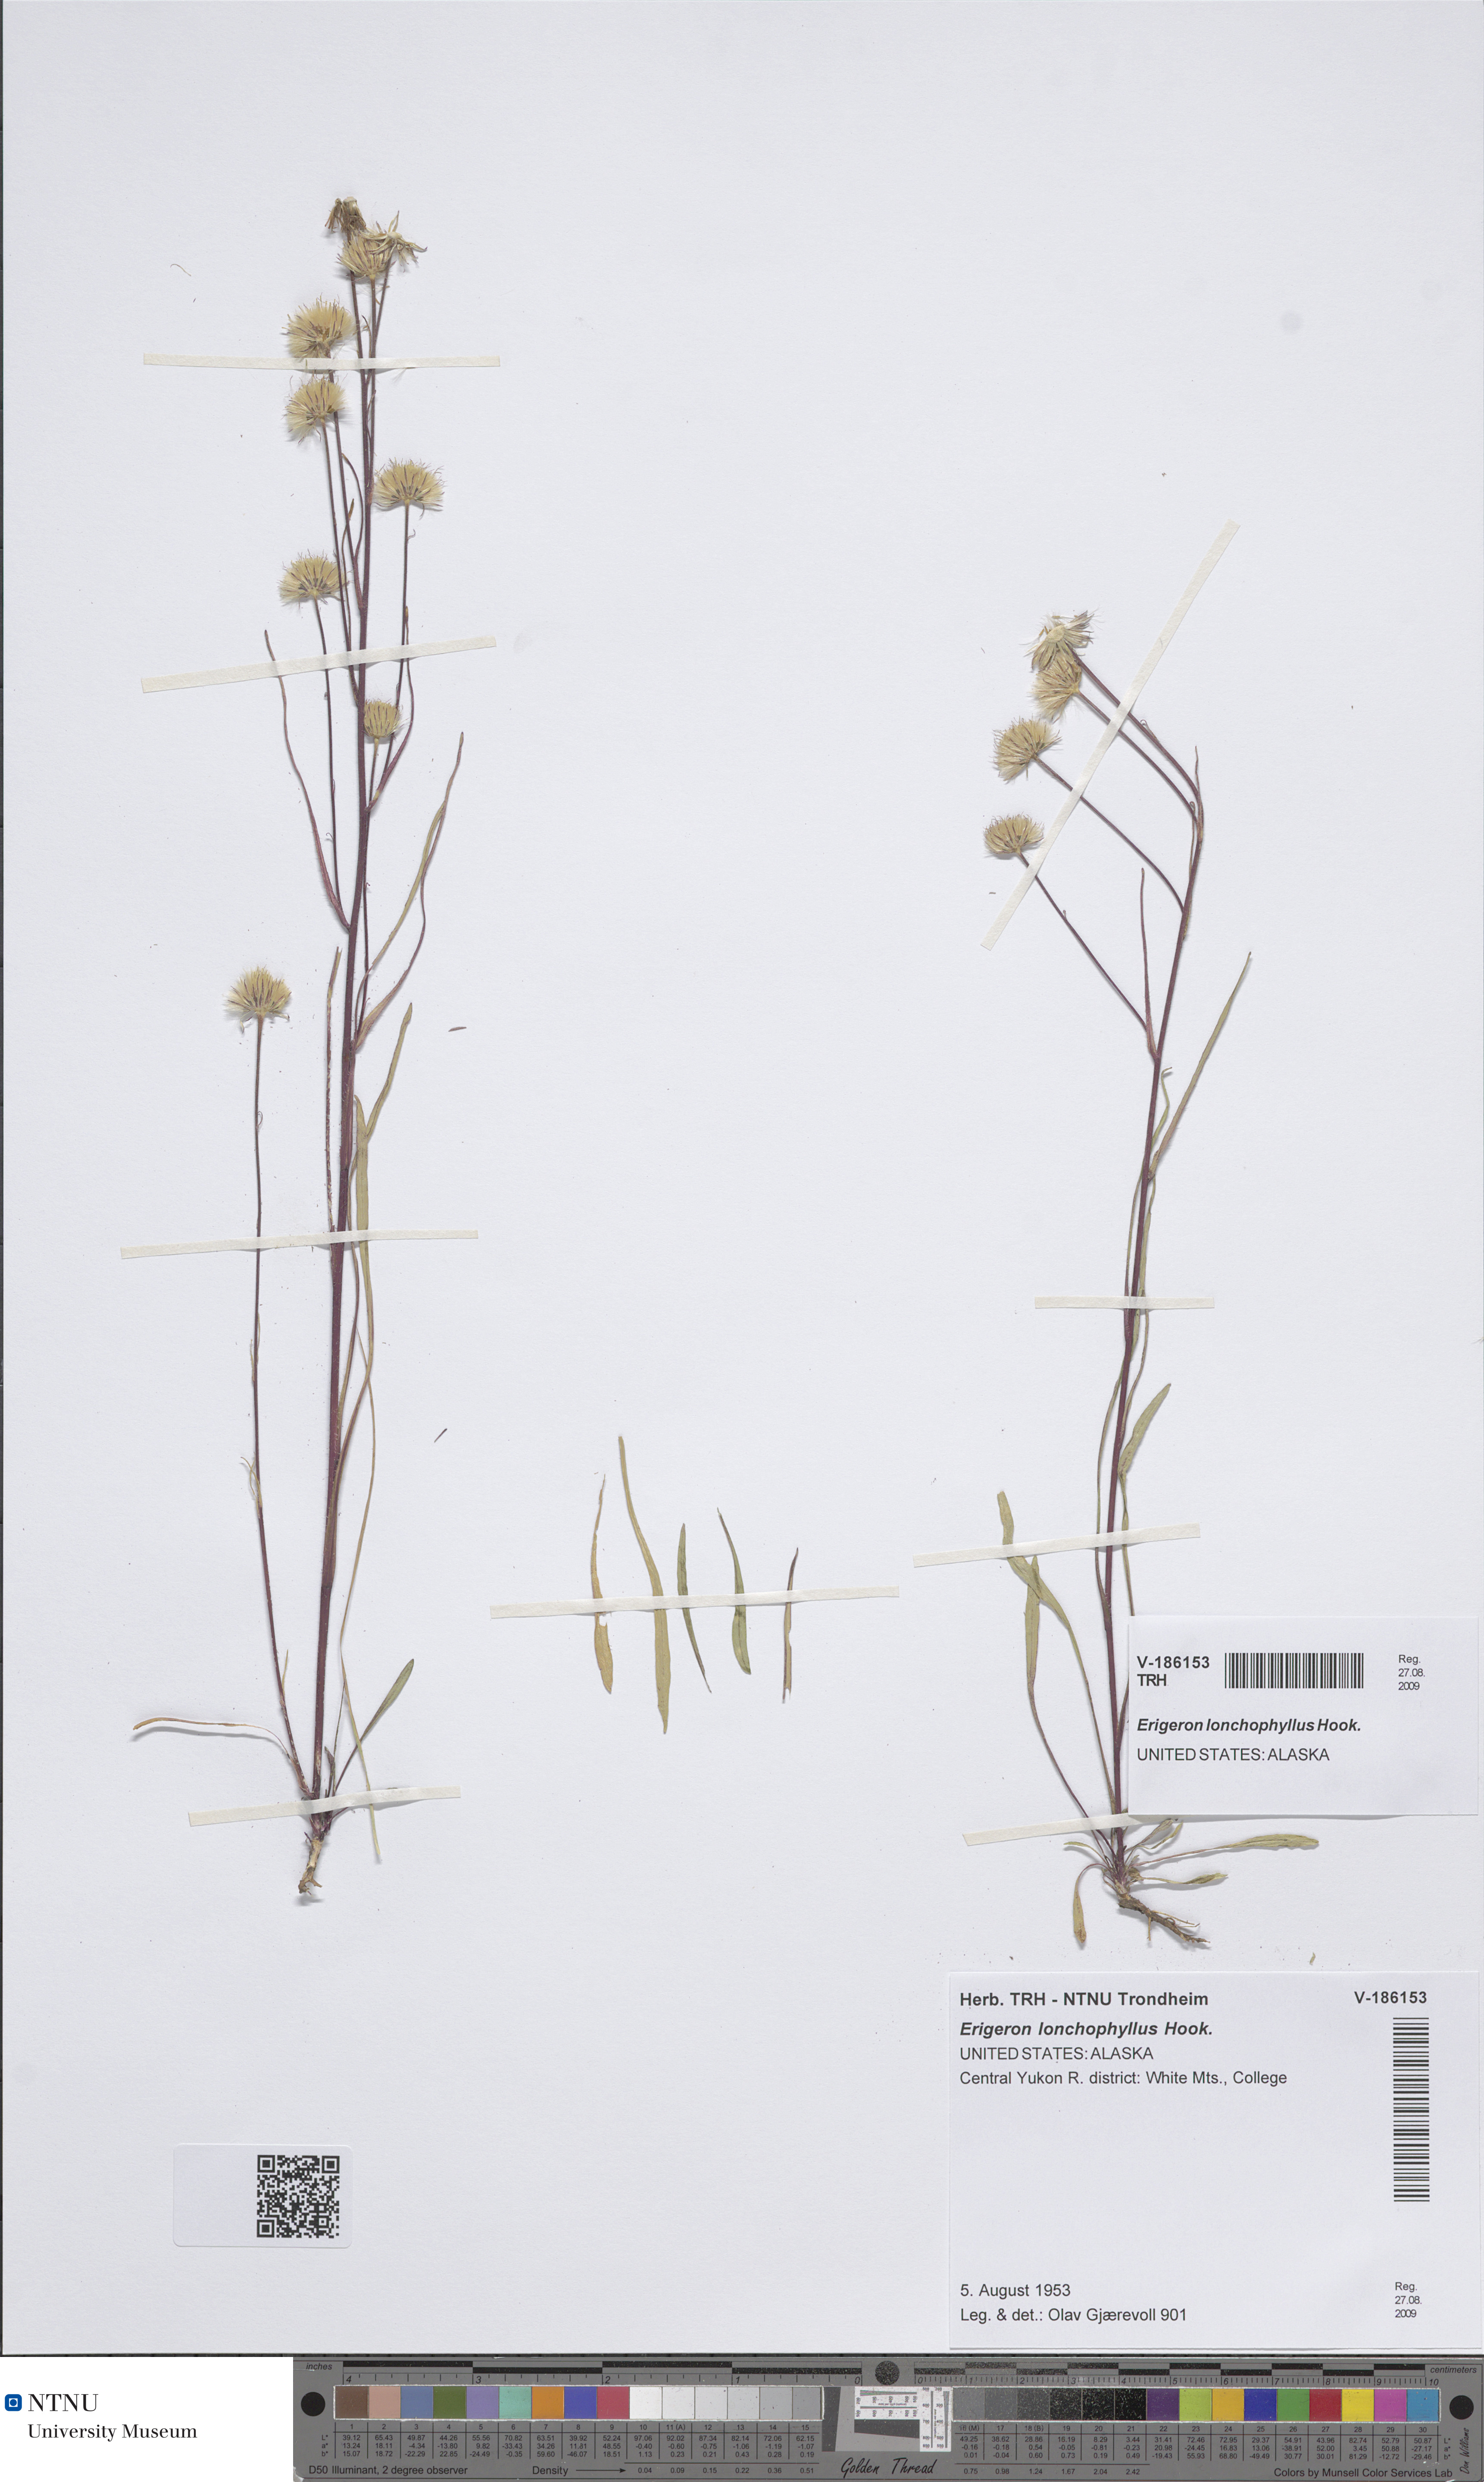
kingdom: Plantae
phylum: Tracheophyta
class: Magnoliopsida
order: Asterales
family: Asteraceae
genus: Erigeron
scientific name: Erigeron lonchophyllus
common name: Short-ray fleabane
